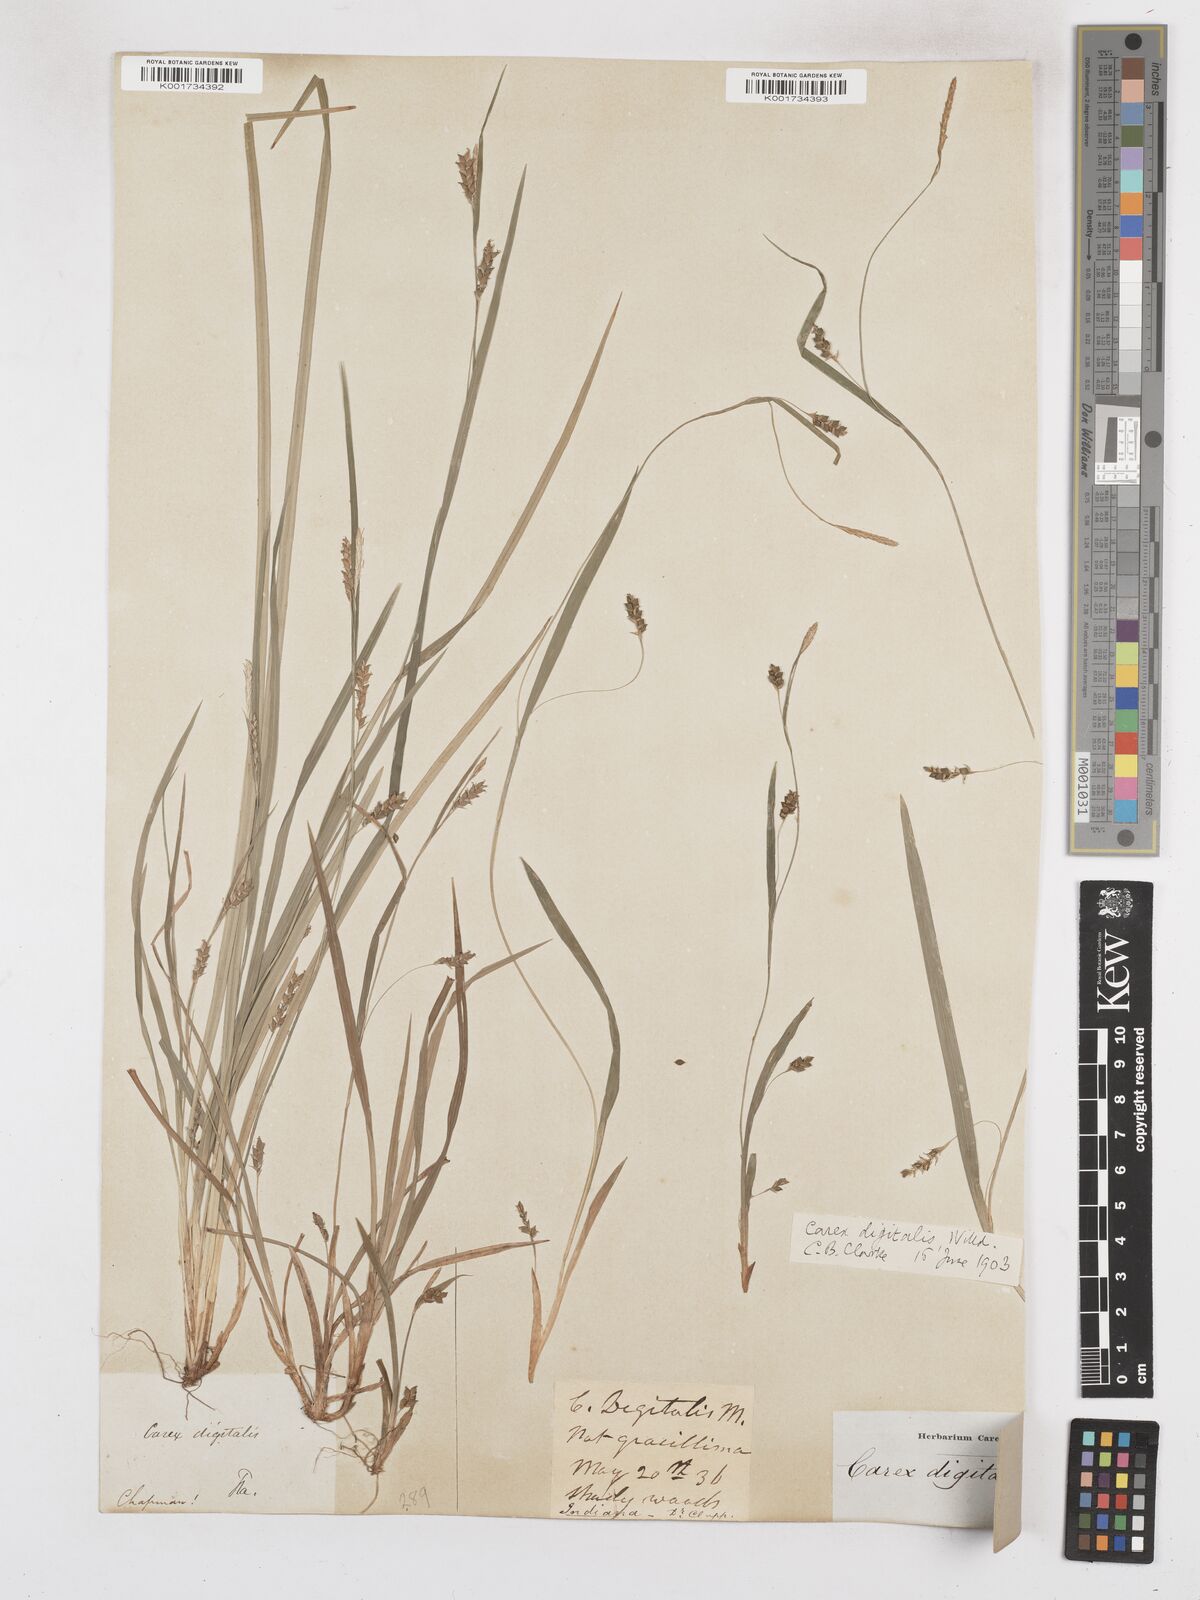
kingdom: Plantae
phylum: Tracheophyta
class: Liliopsida
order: Poales
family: Cyperaceae
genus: Carex
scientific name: Carex digitalis
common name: Slender wood sedge
